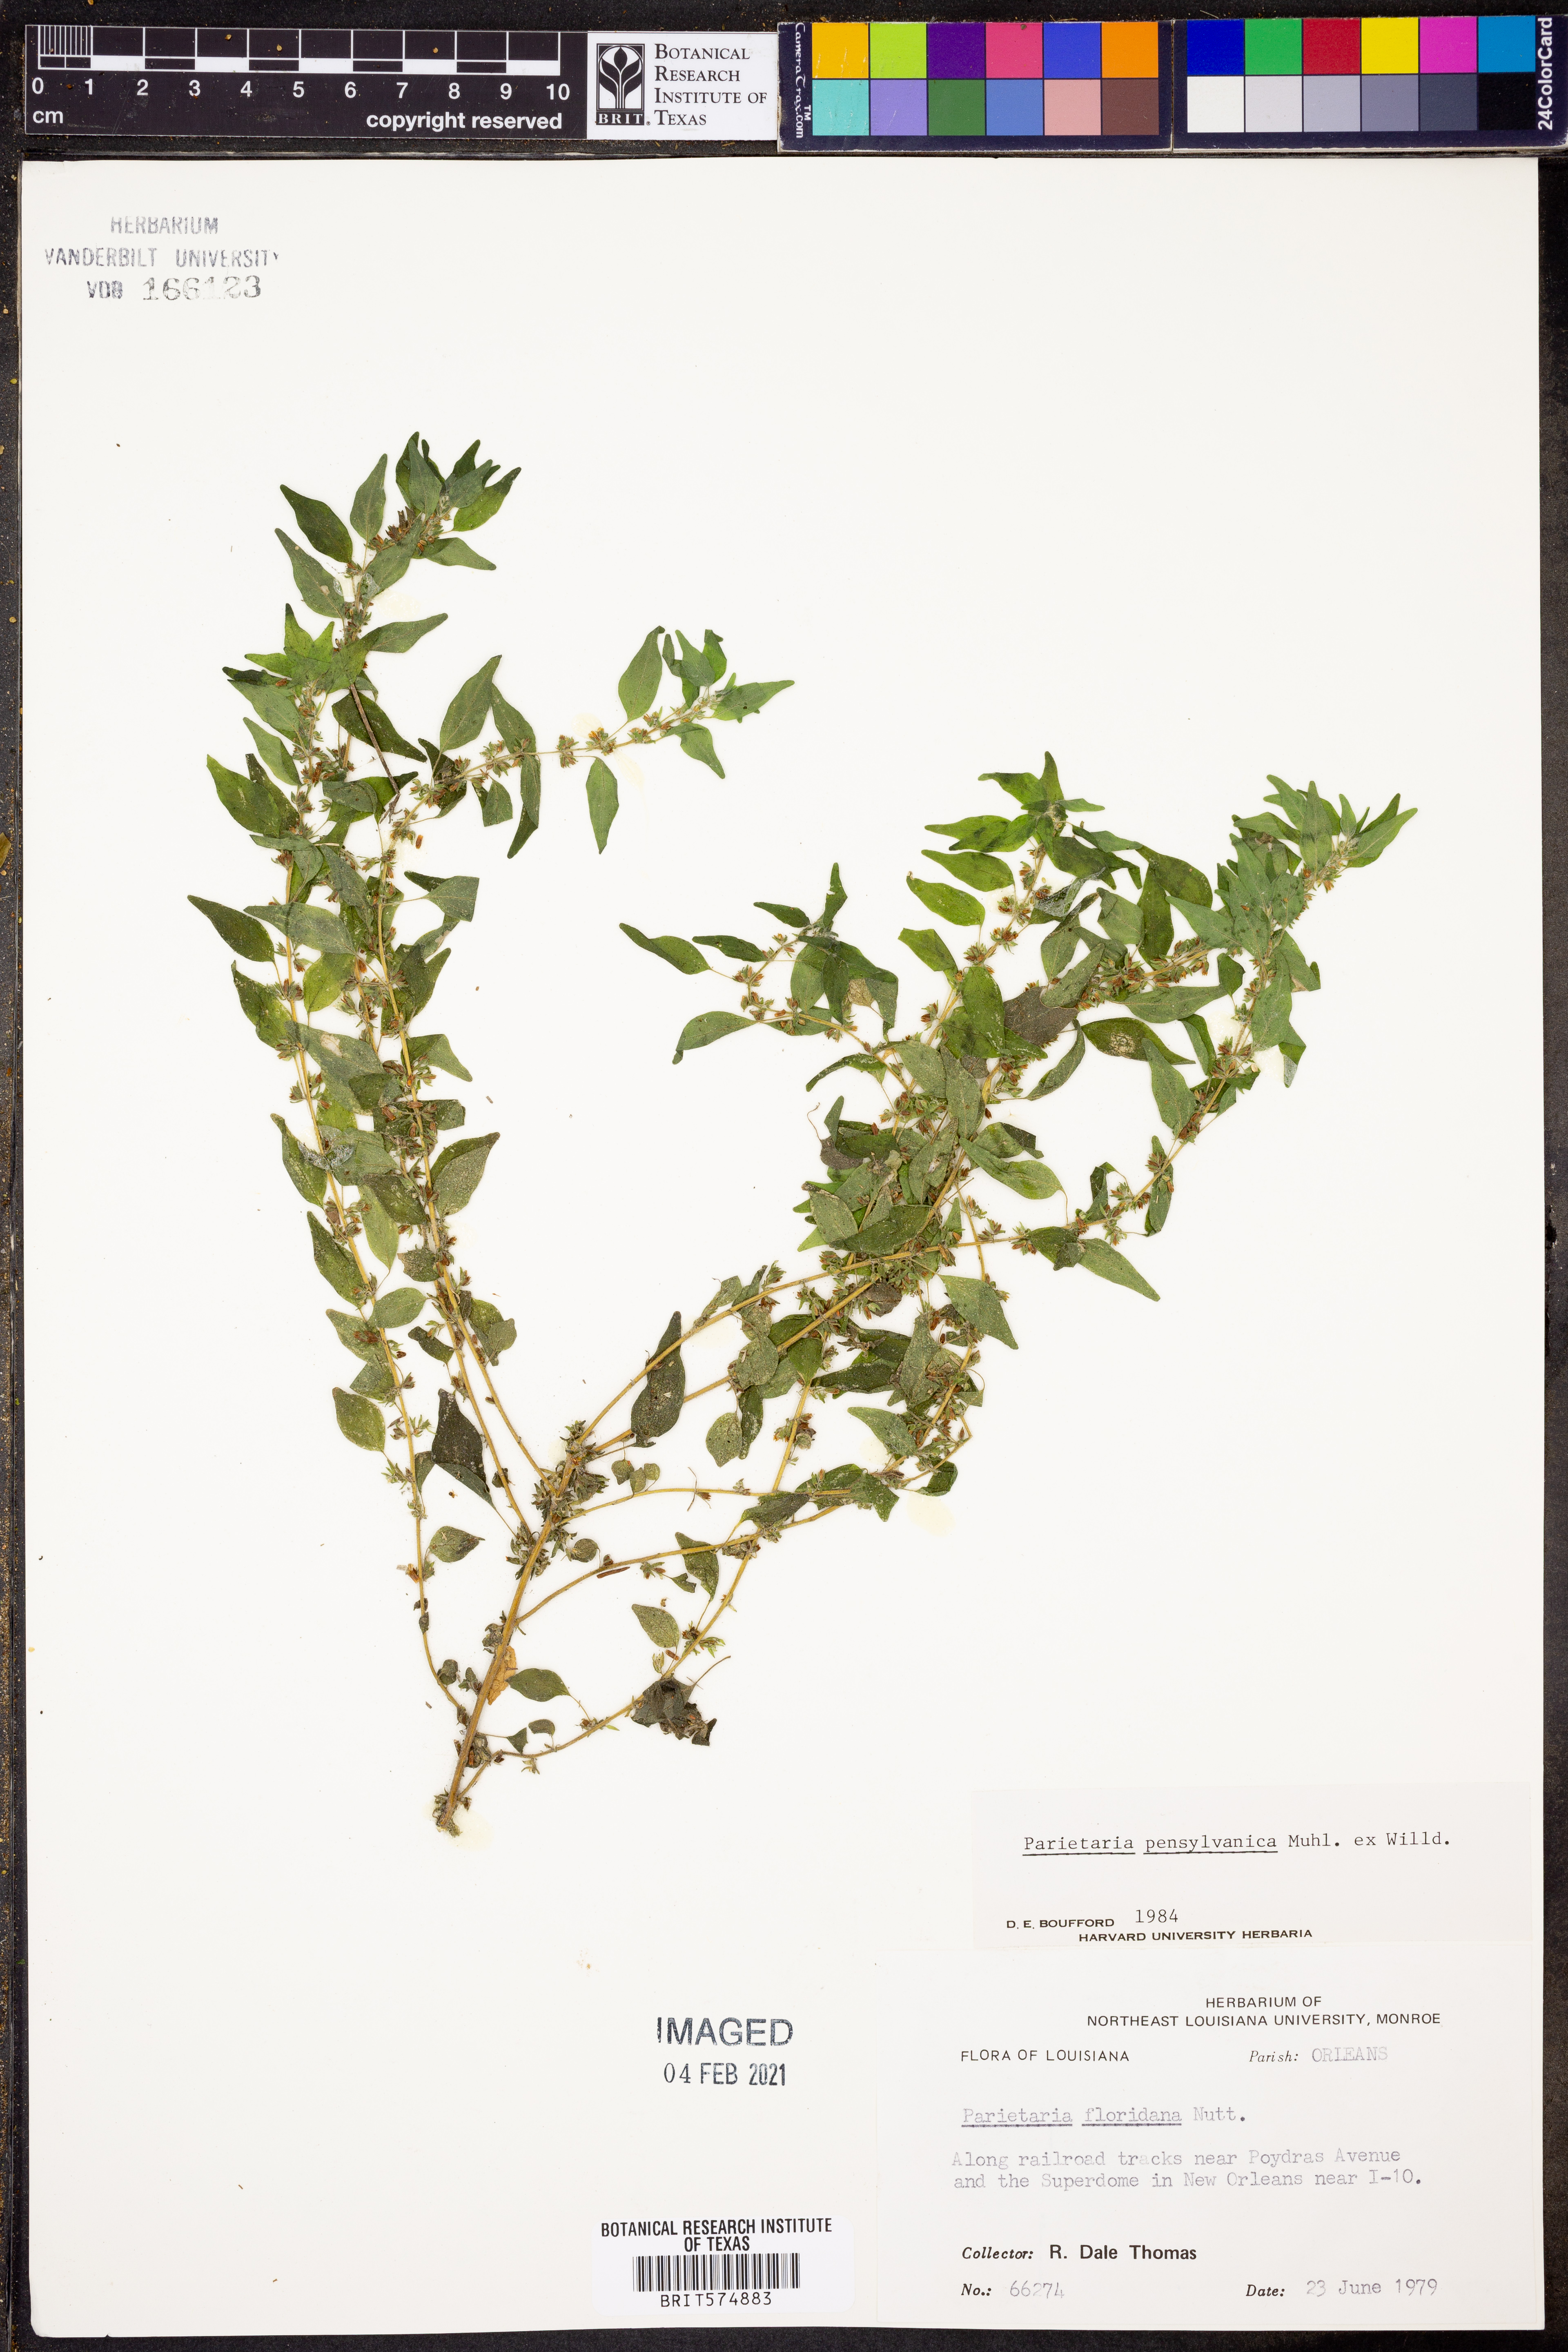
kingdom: Plantae
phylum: Tracheophyta
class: Magnoliopsida
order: Rosales
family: Urticaceae
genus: Parietaria
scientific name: Parietaria pensylvanica
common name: Pennsylvania pellitory
